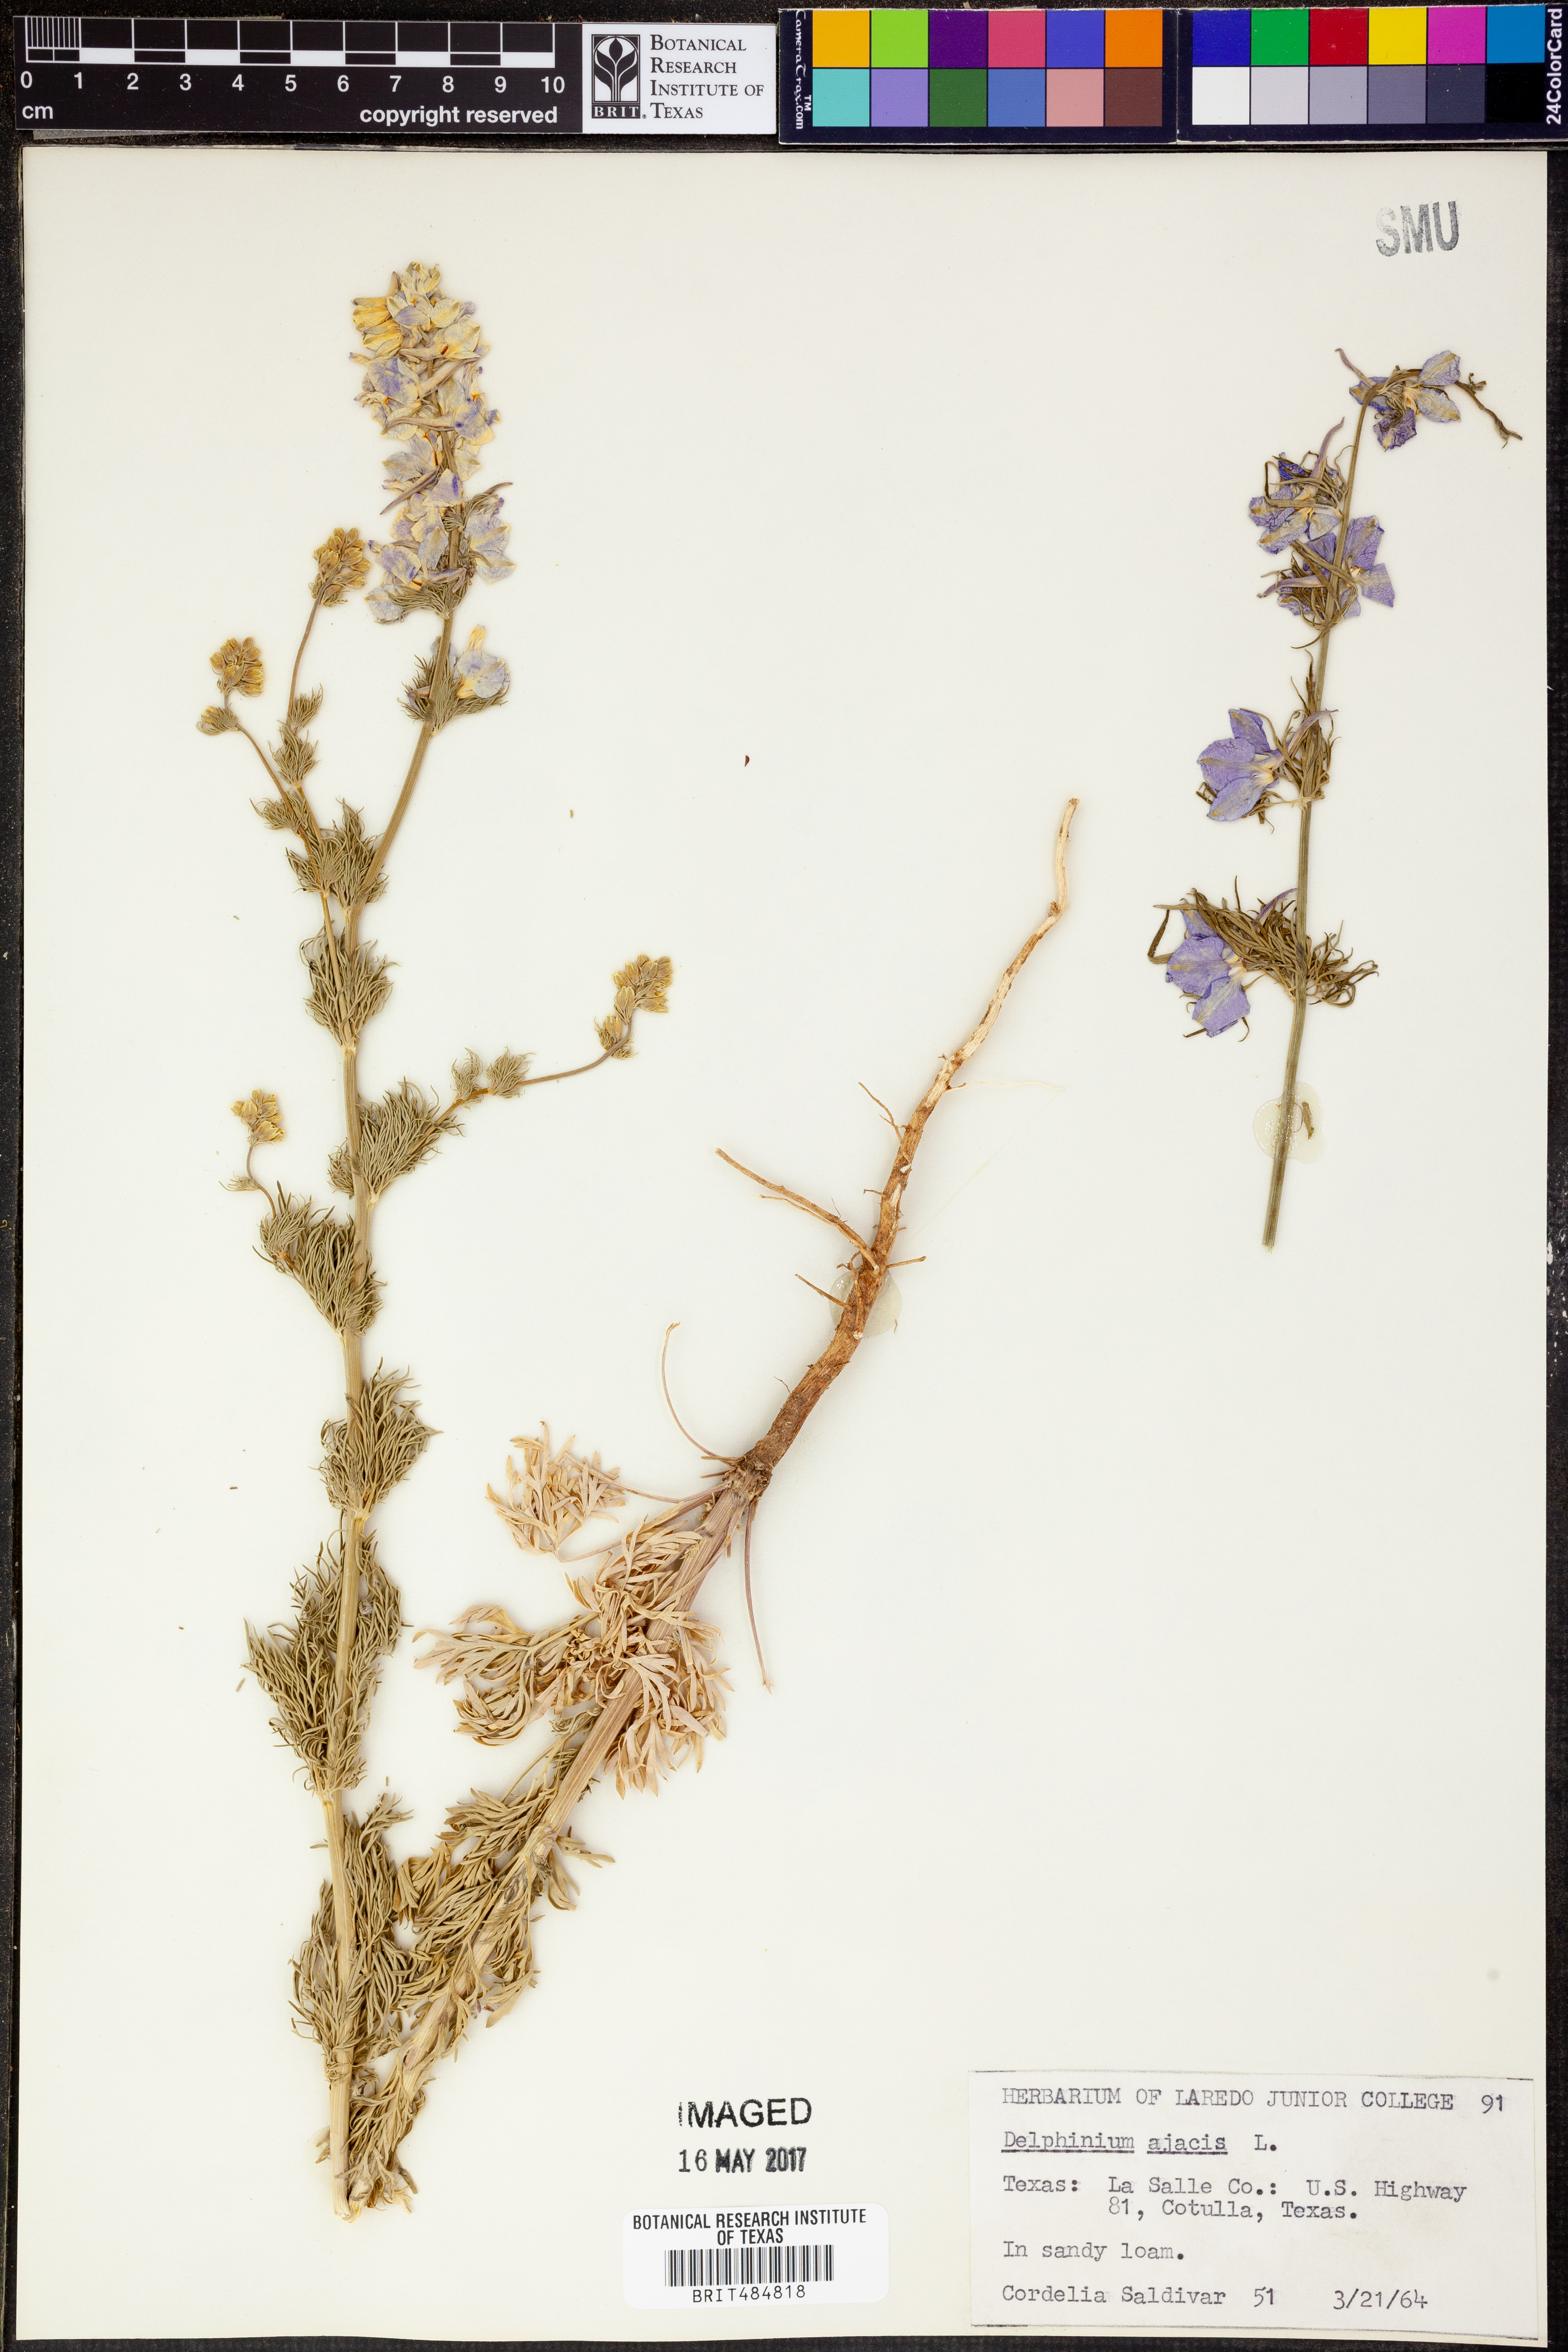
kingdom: Plantae
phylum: Tracheophyta
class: Magnoliopsida
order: Ranunculales
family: Ranunculaceae
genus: Delphinium
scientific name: Delphinium ajacis
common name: Doubtful knight's-spur
